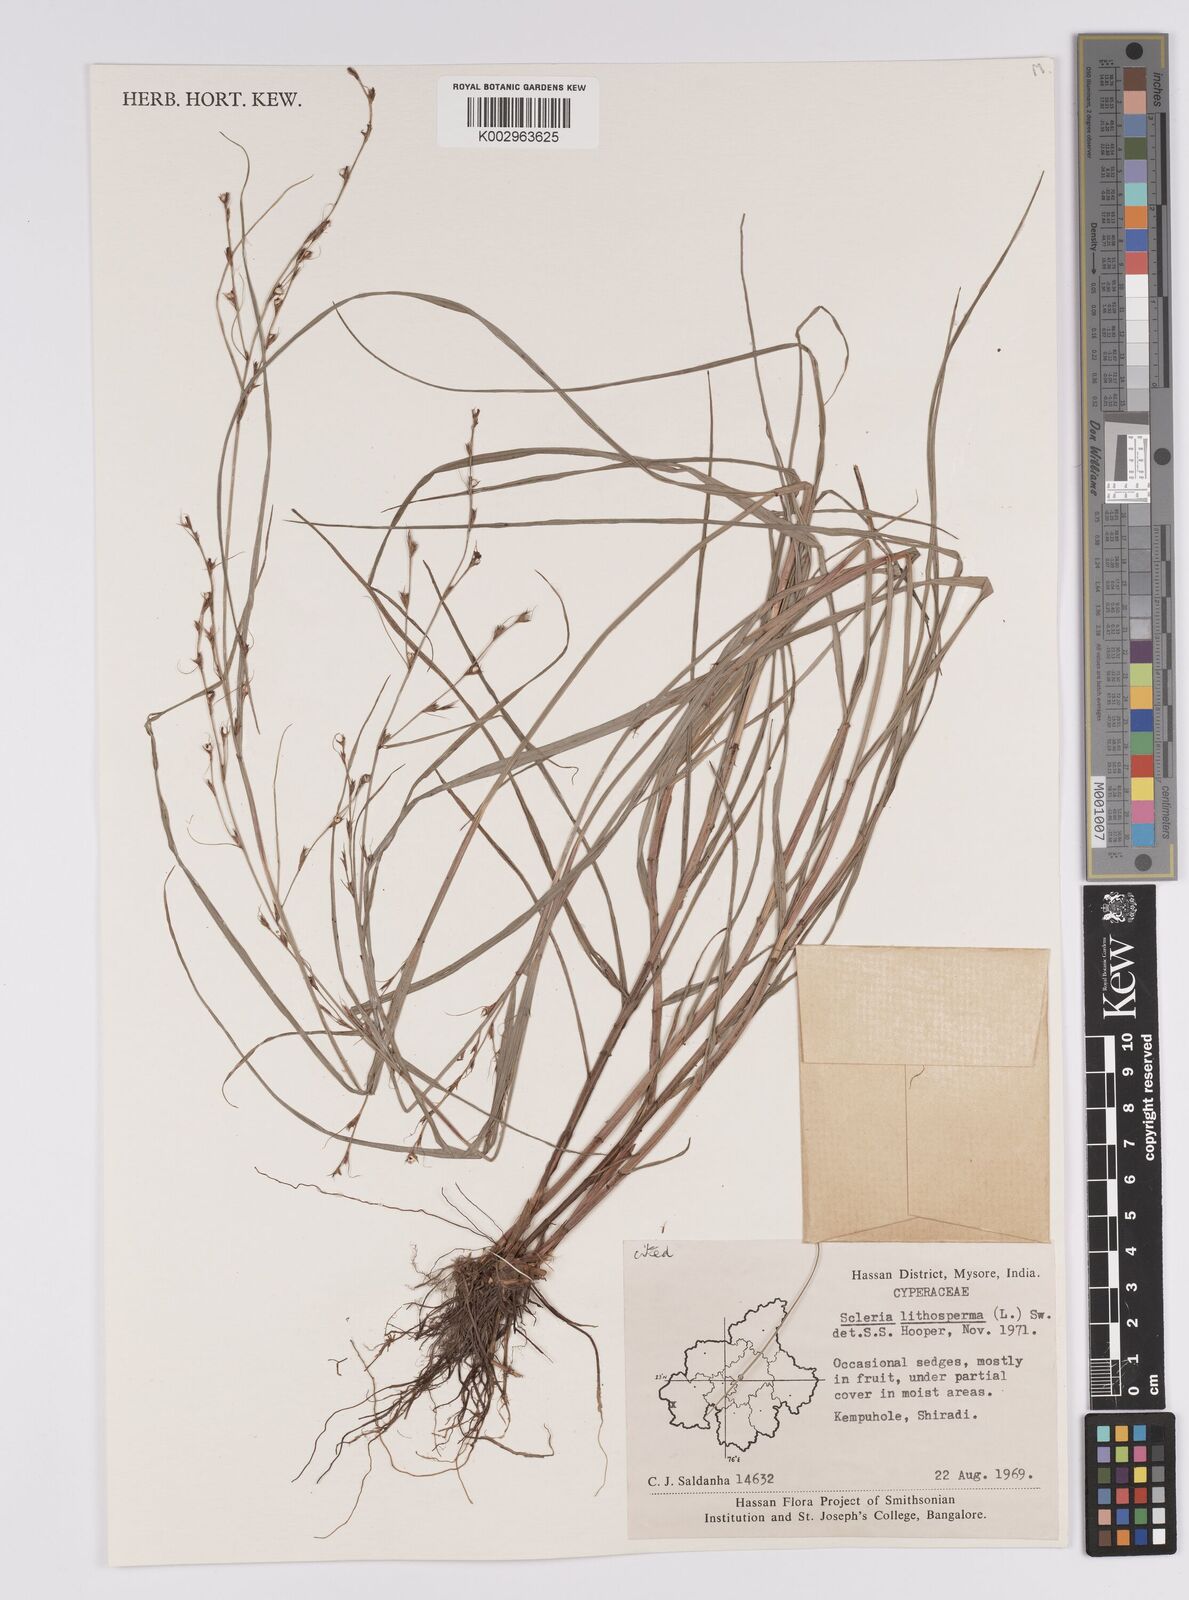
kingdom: Plantae
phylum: Tracheophyta
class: Liliopsida
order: Poales
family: Cyperaceae
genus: Scleria
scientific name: Scleria lithosperma
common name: Florida keys nut-rush
